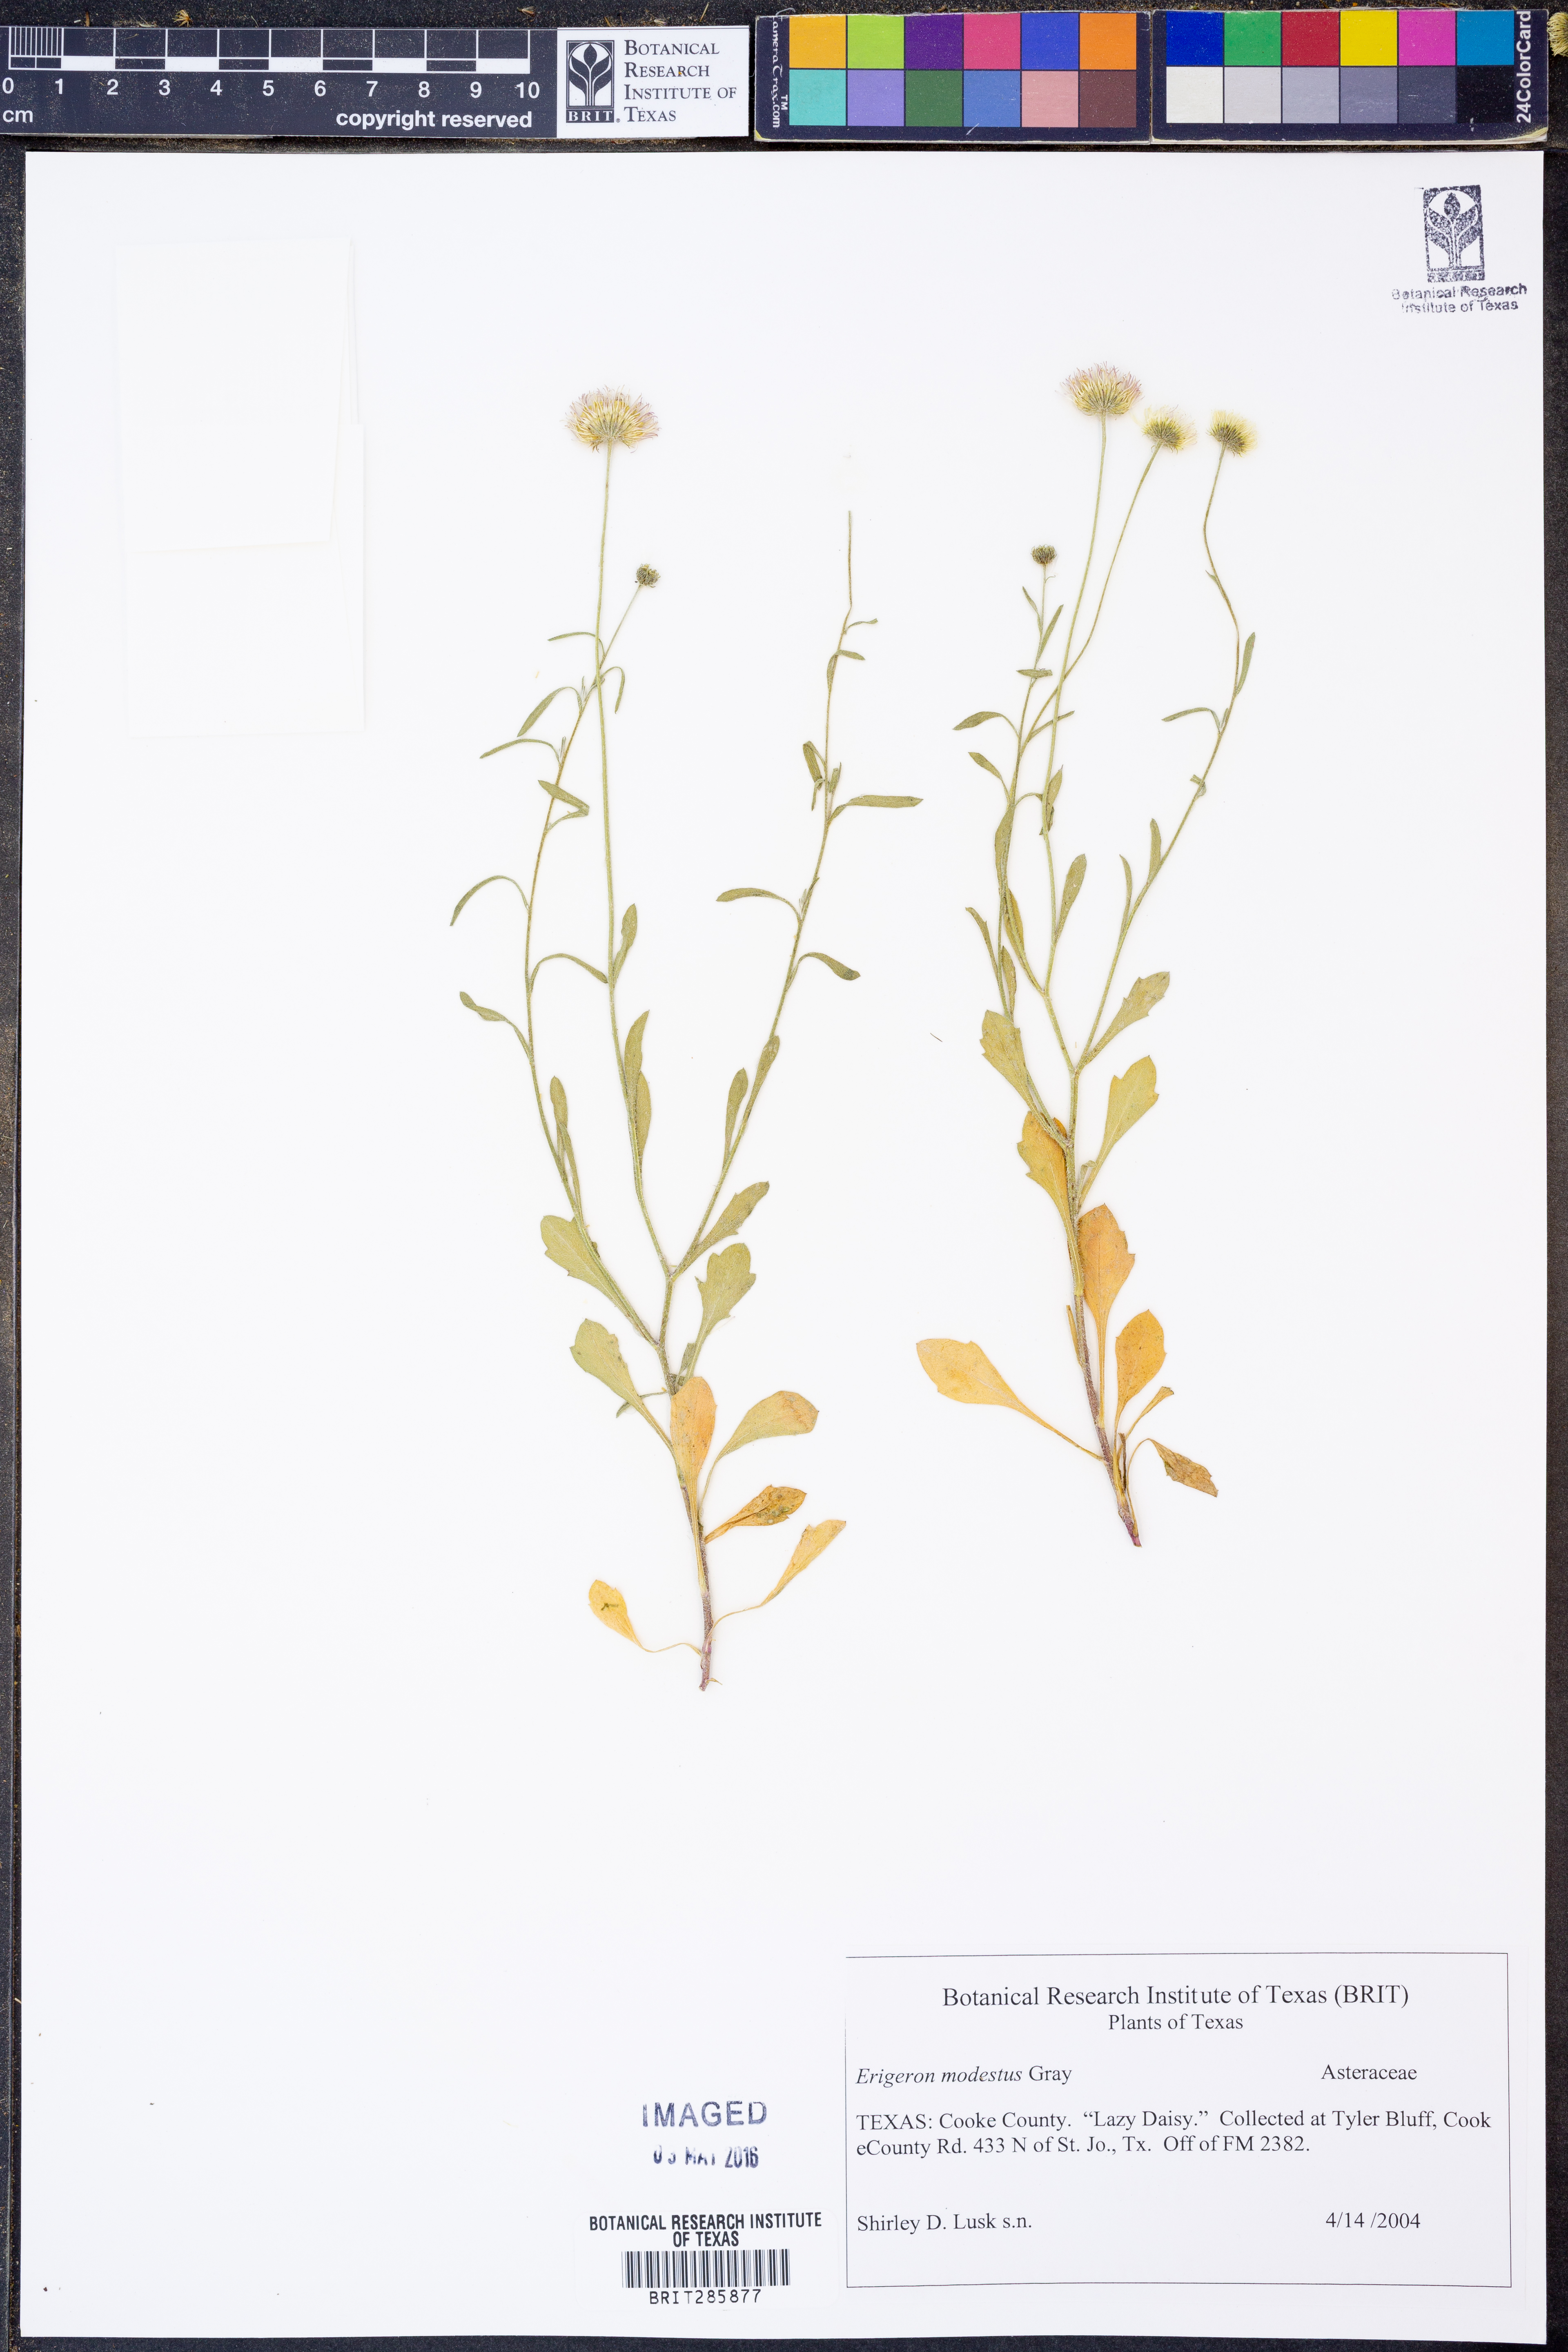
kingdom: Plantae
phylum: Tracheophyta
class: Magnoliopsida
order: Asterales
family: Asteraceae
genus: Erigeron
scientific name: Erigeron modestus
